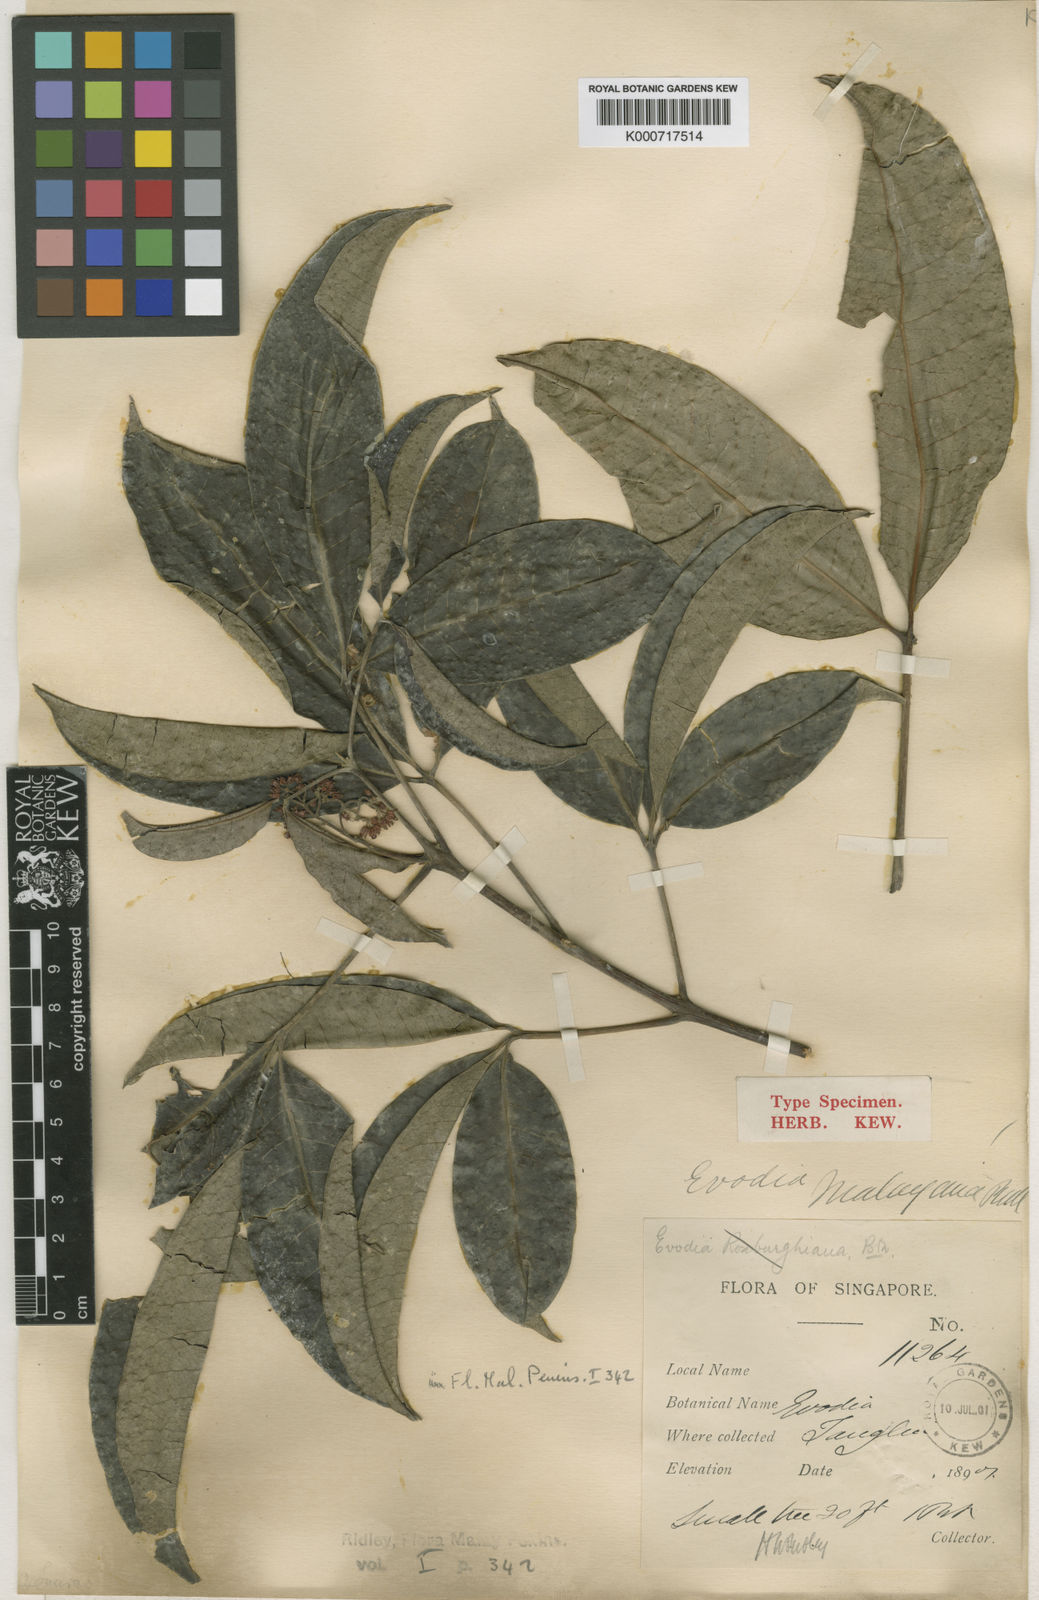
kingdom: Plantae
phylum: Tracheophyta
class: Magnoliopsida
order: Sapindales
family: Rutaceae
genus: Melicope
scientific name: Melicope lunu-ankenda
